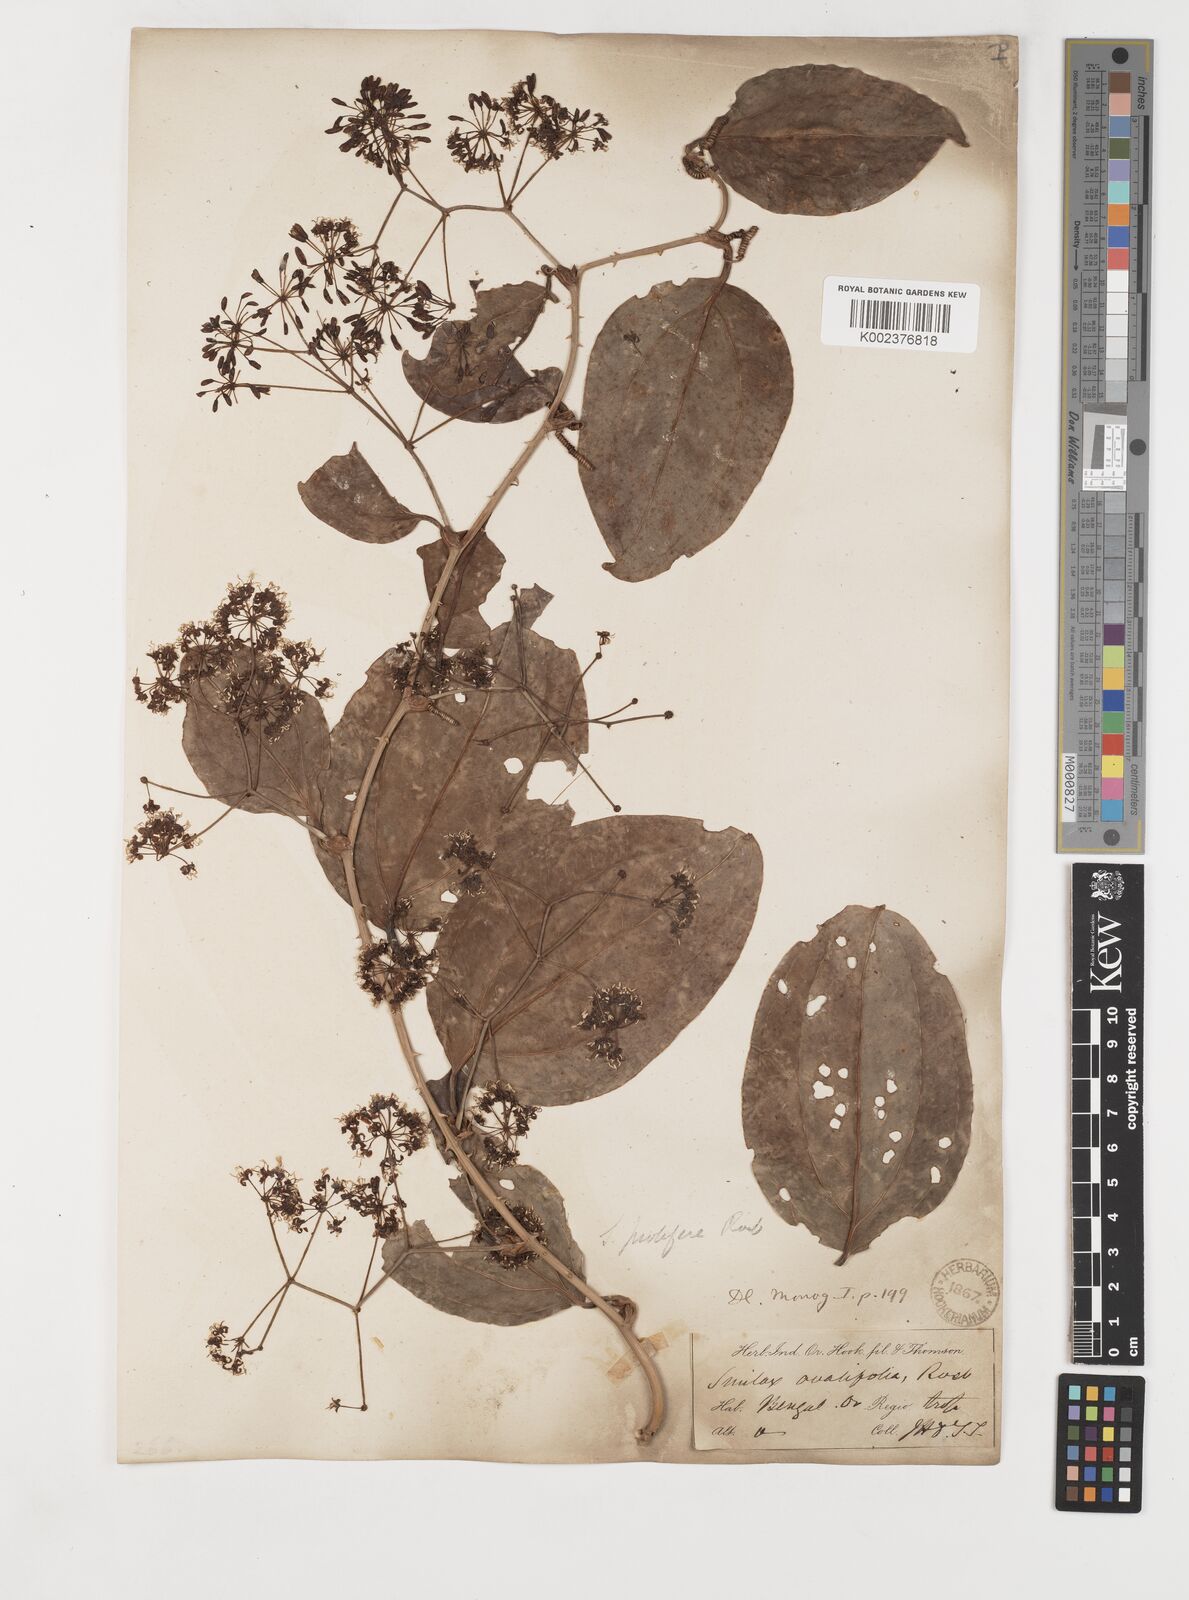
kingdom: Plantae
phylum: Tracheophyta
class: Liliopsida
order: Liliales
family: Smilacaceae
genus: Smilax
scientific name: Smilax prolifera
